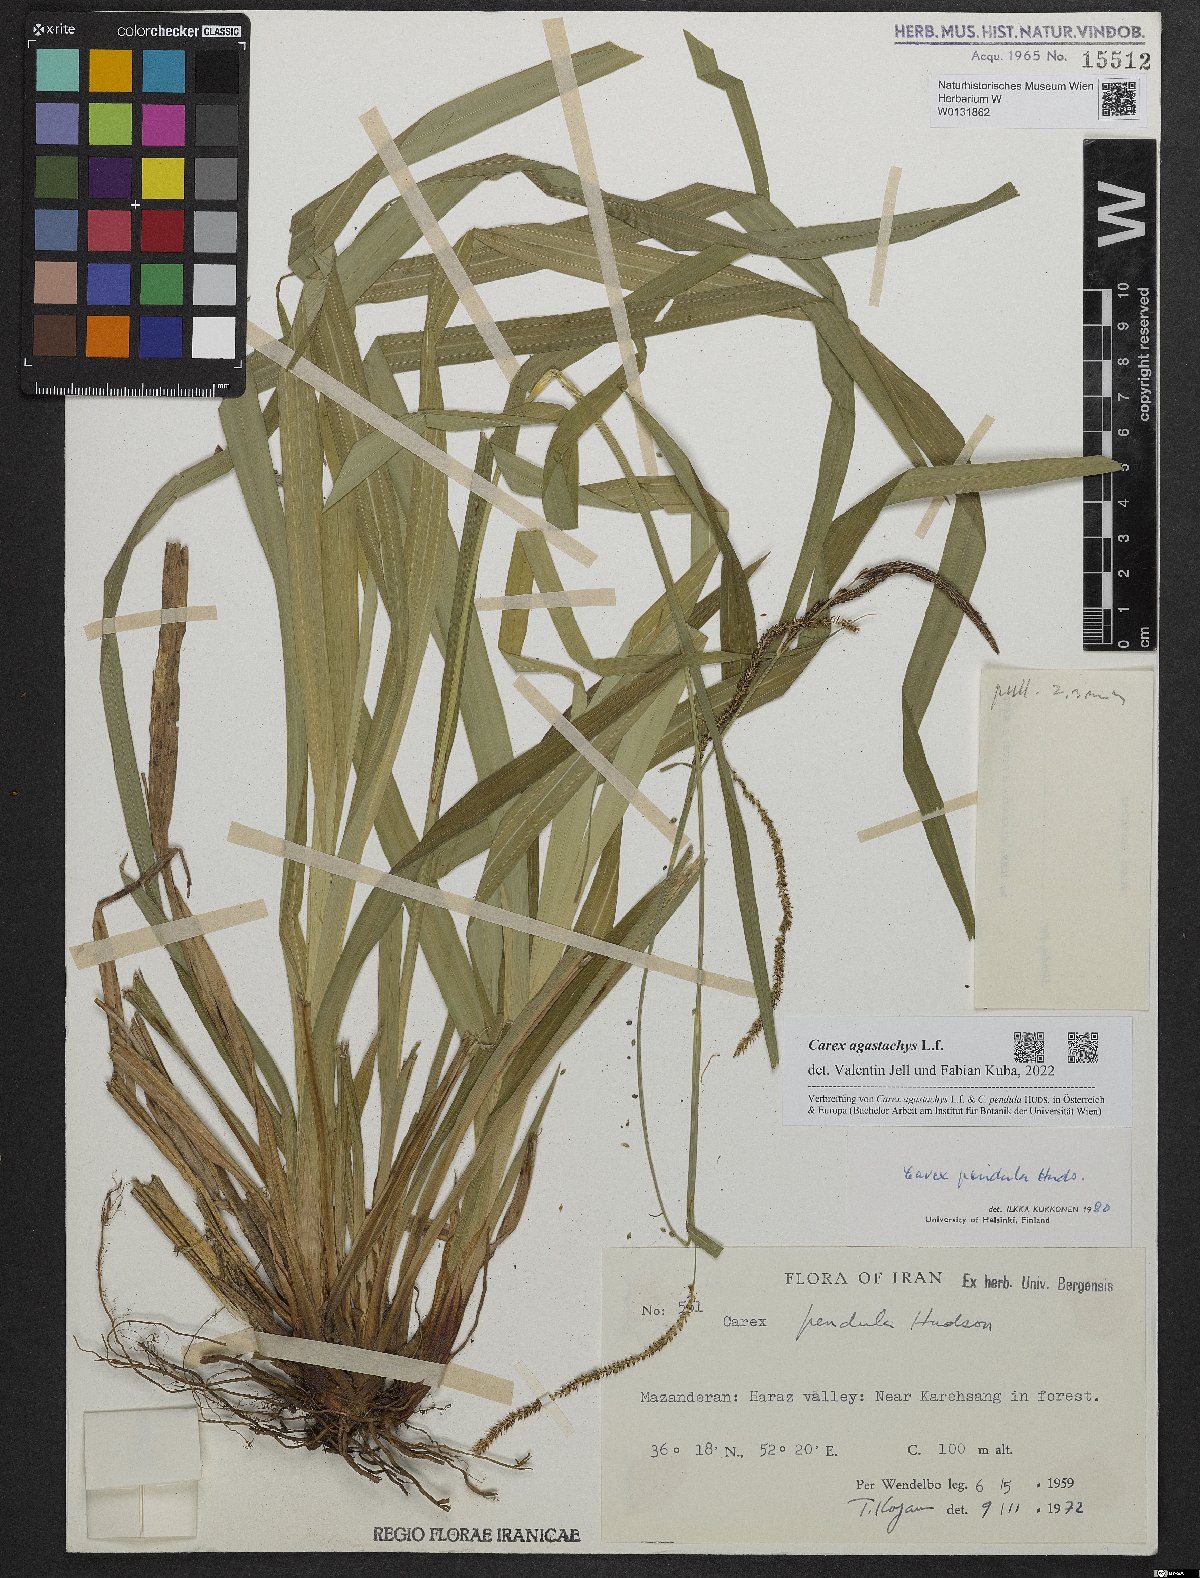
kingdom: Plantae
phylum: Tracheophyta
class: Liliopsida
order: Poales
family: Cyperaceae
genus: Carex
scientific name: Carex agastachys
